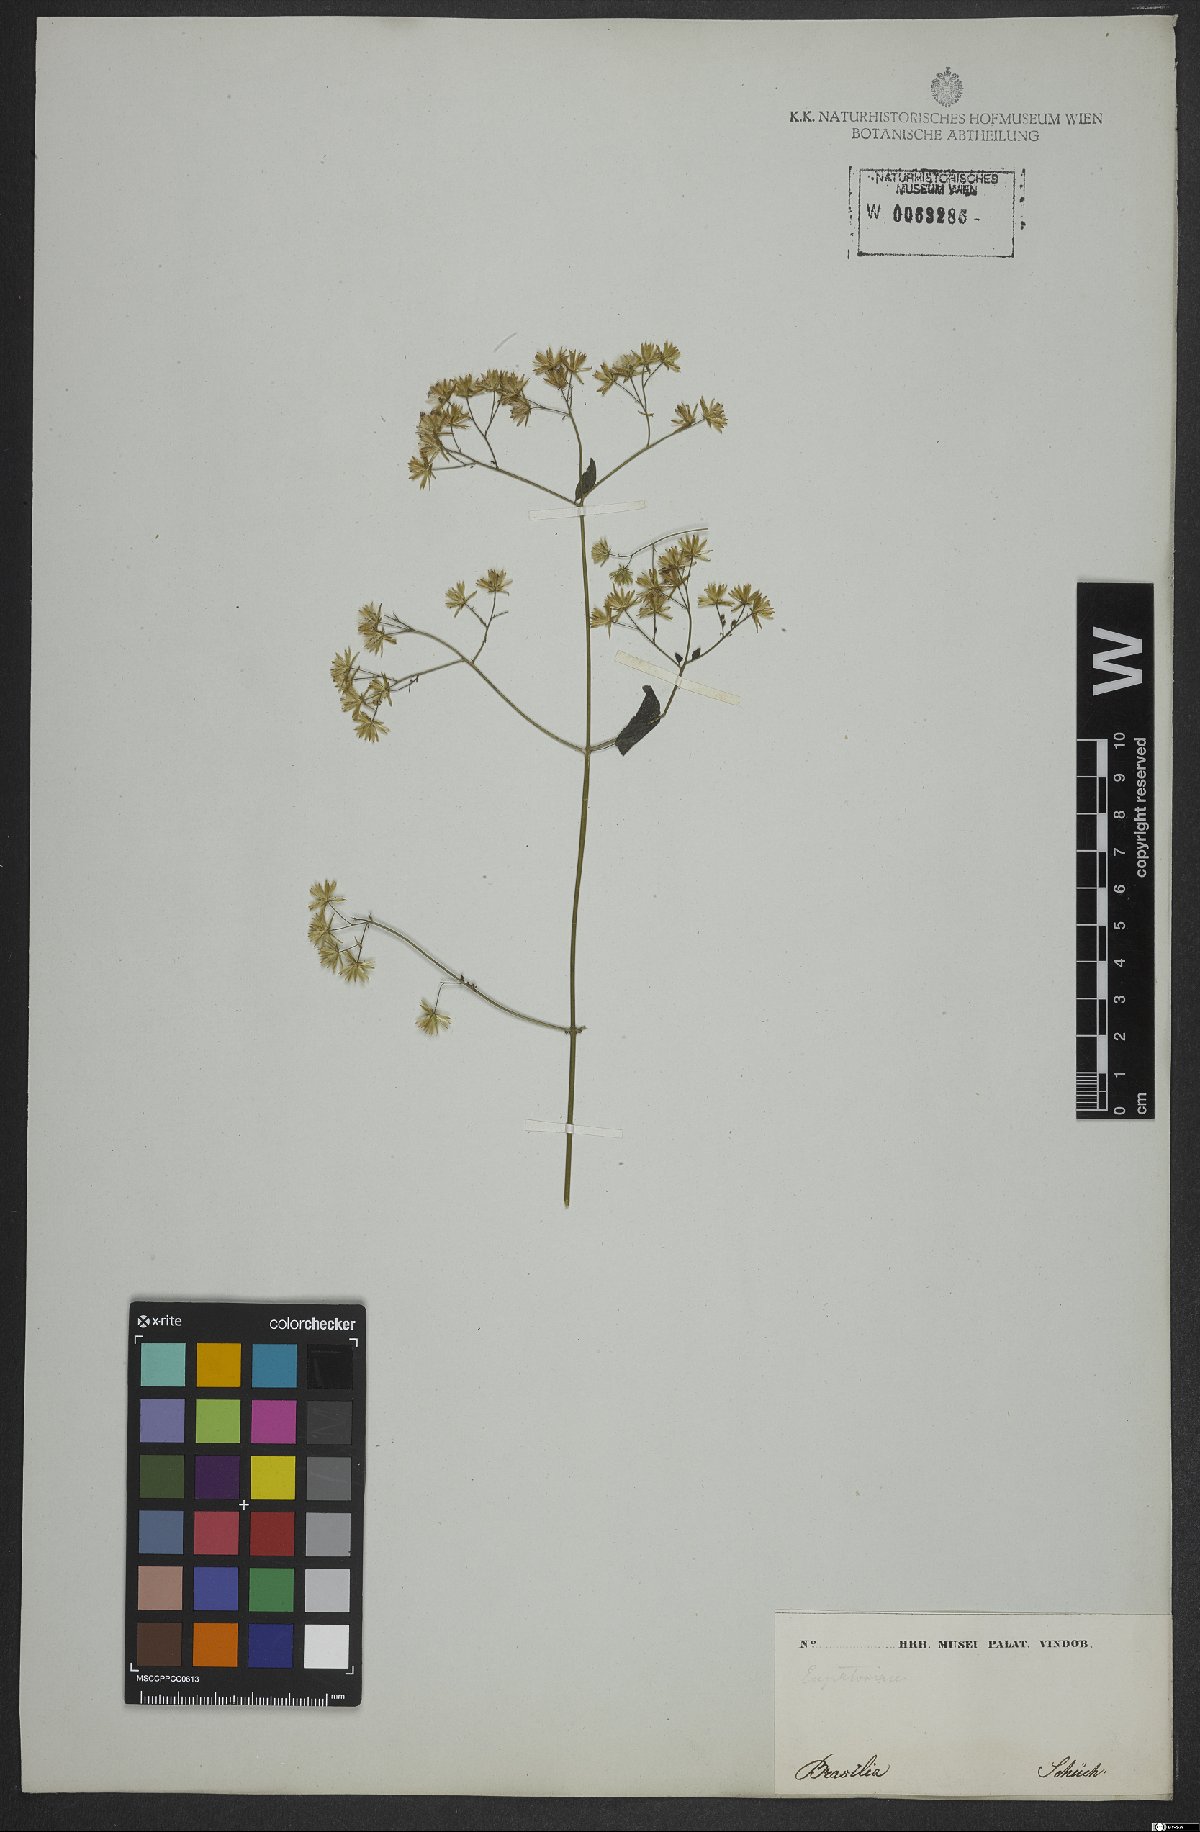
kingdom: Plantae
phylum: Tracheophyta
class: Magnoliopsida
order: Asterales
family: Asteraceae
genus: Fleischmannia
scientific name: Fleischmannia microstemon
